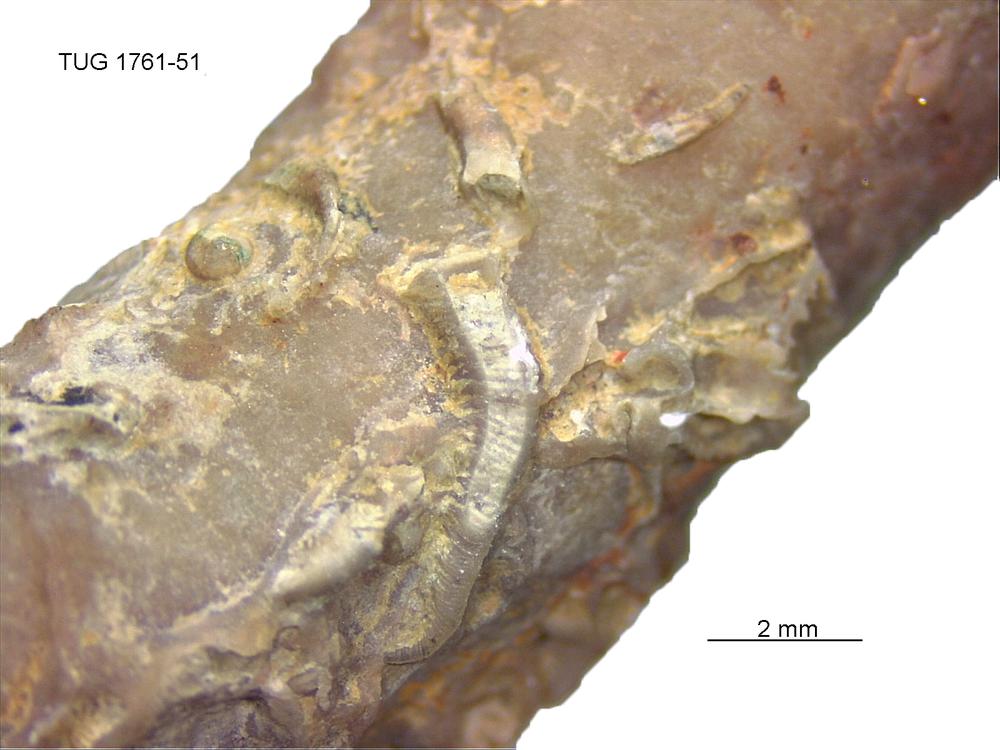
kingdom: Animalia
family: Cornulitidae
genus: Cornulites
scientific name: Cornulites
